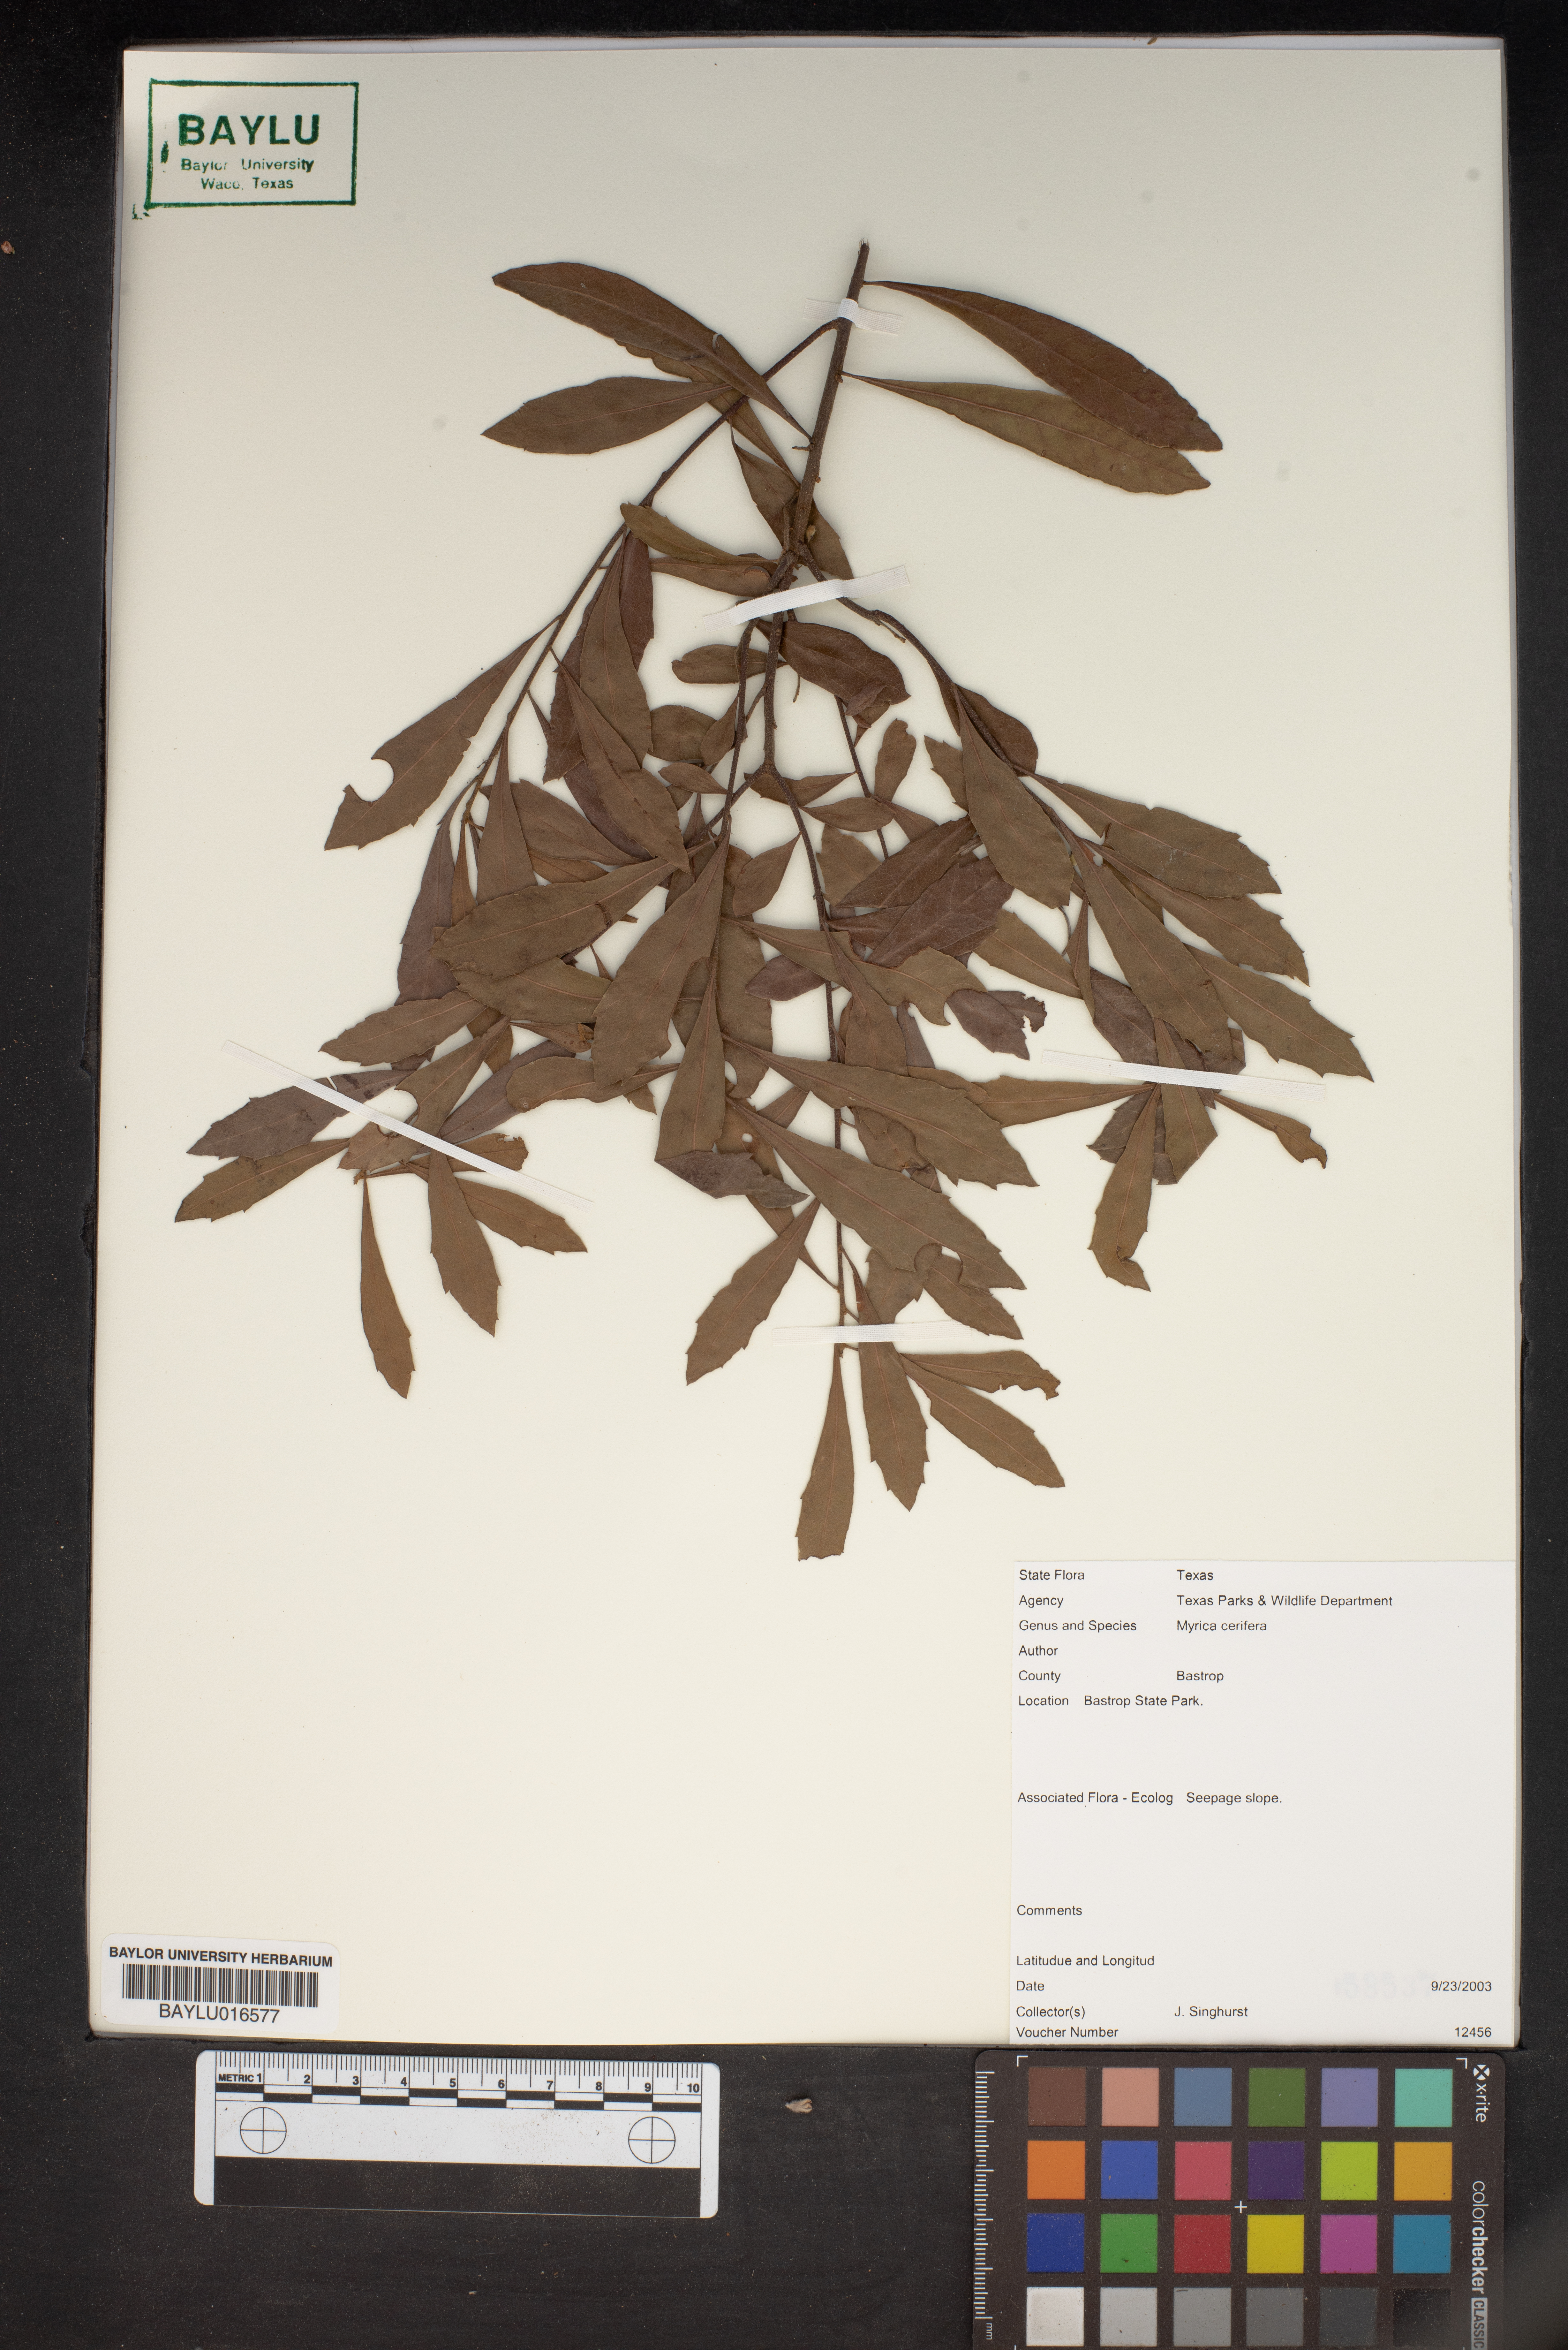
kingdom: Plantae
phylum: Tracheophyta
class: Magnoliopsida
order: Fagales
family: Myricaceae
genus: Morella
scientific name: Morella cerifera
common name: Wax myrtle
